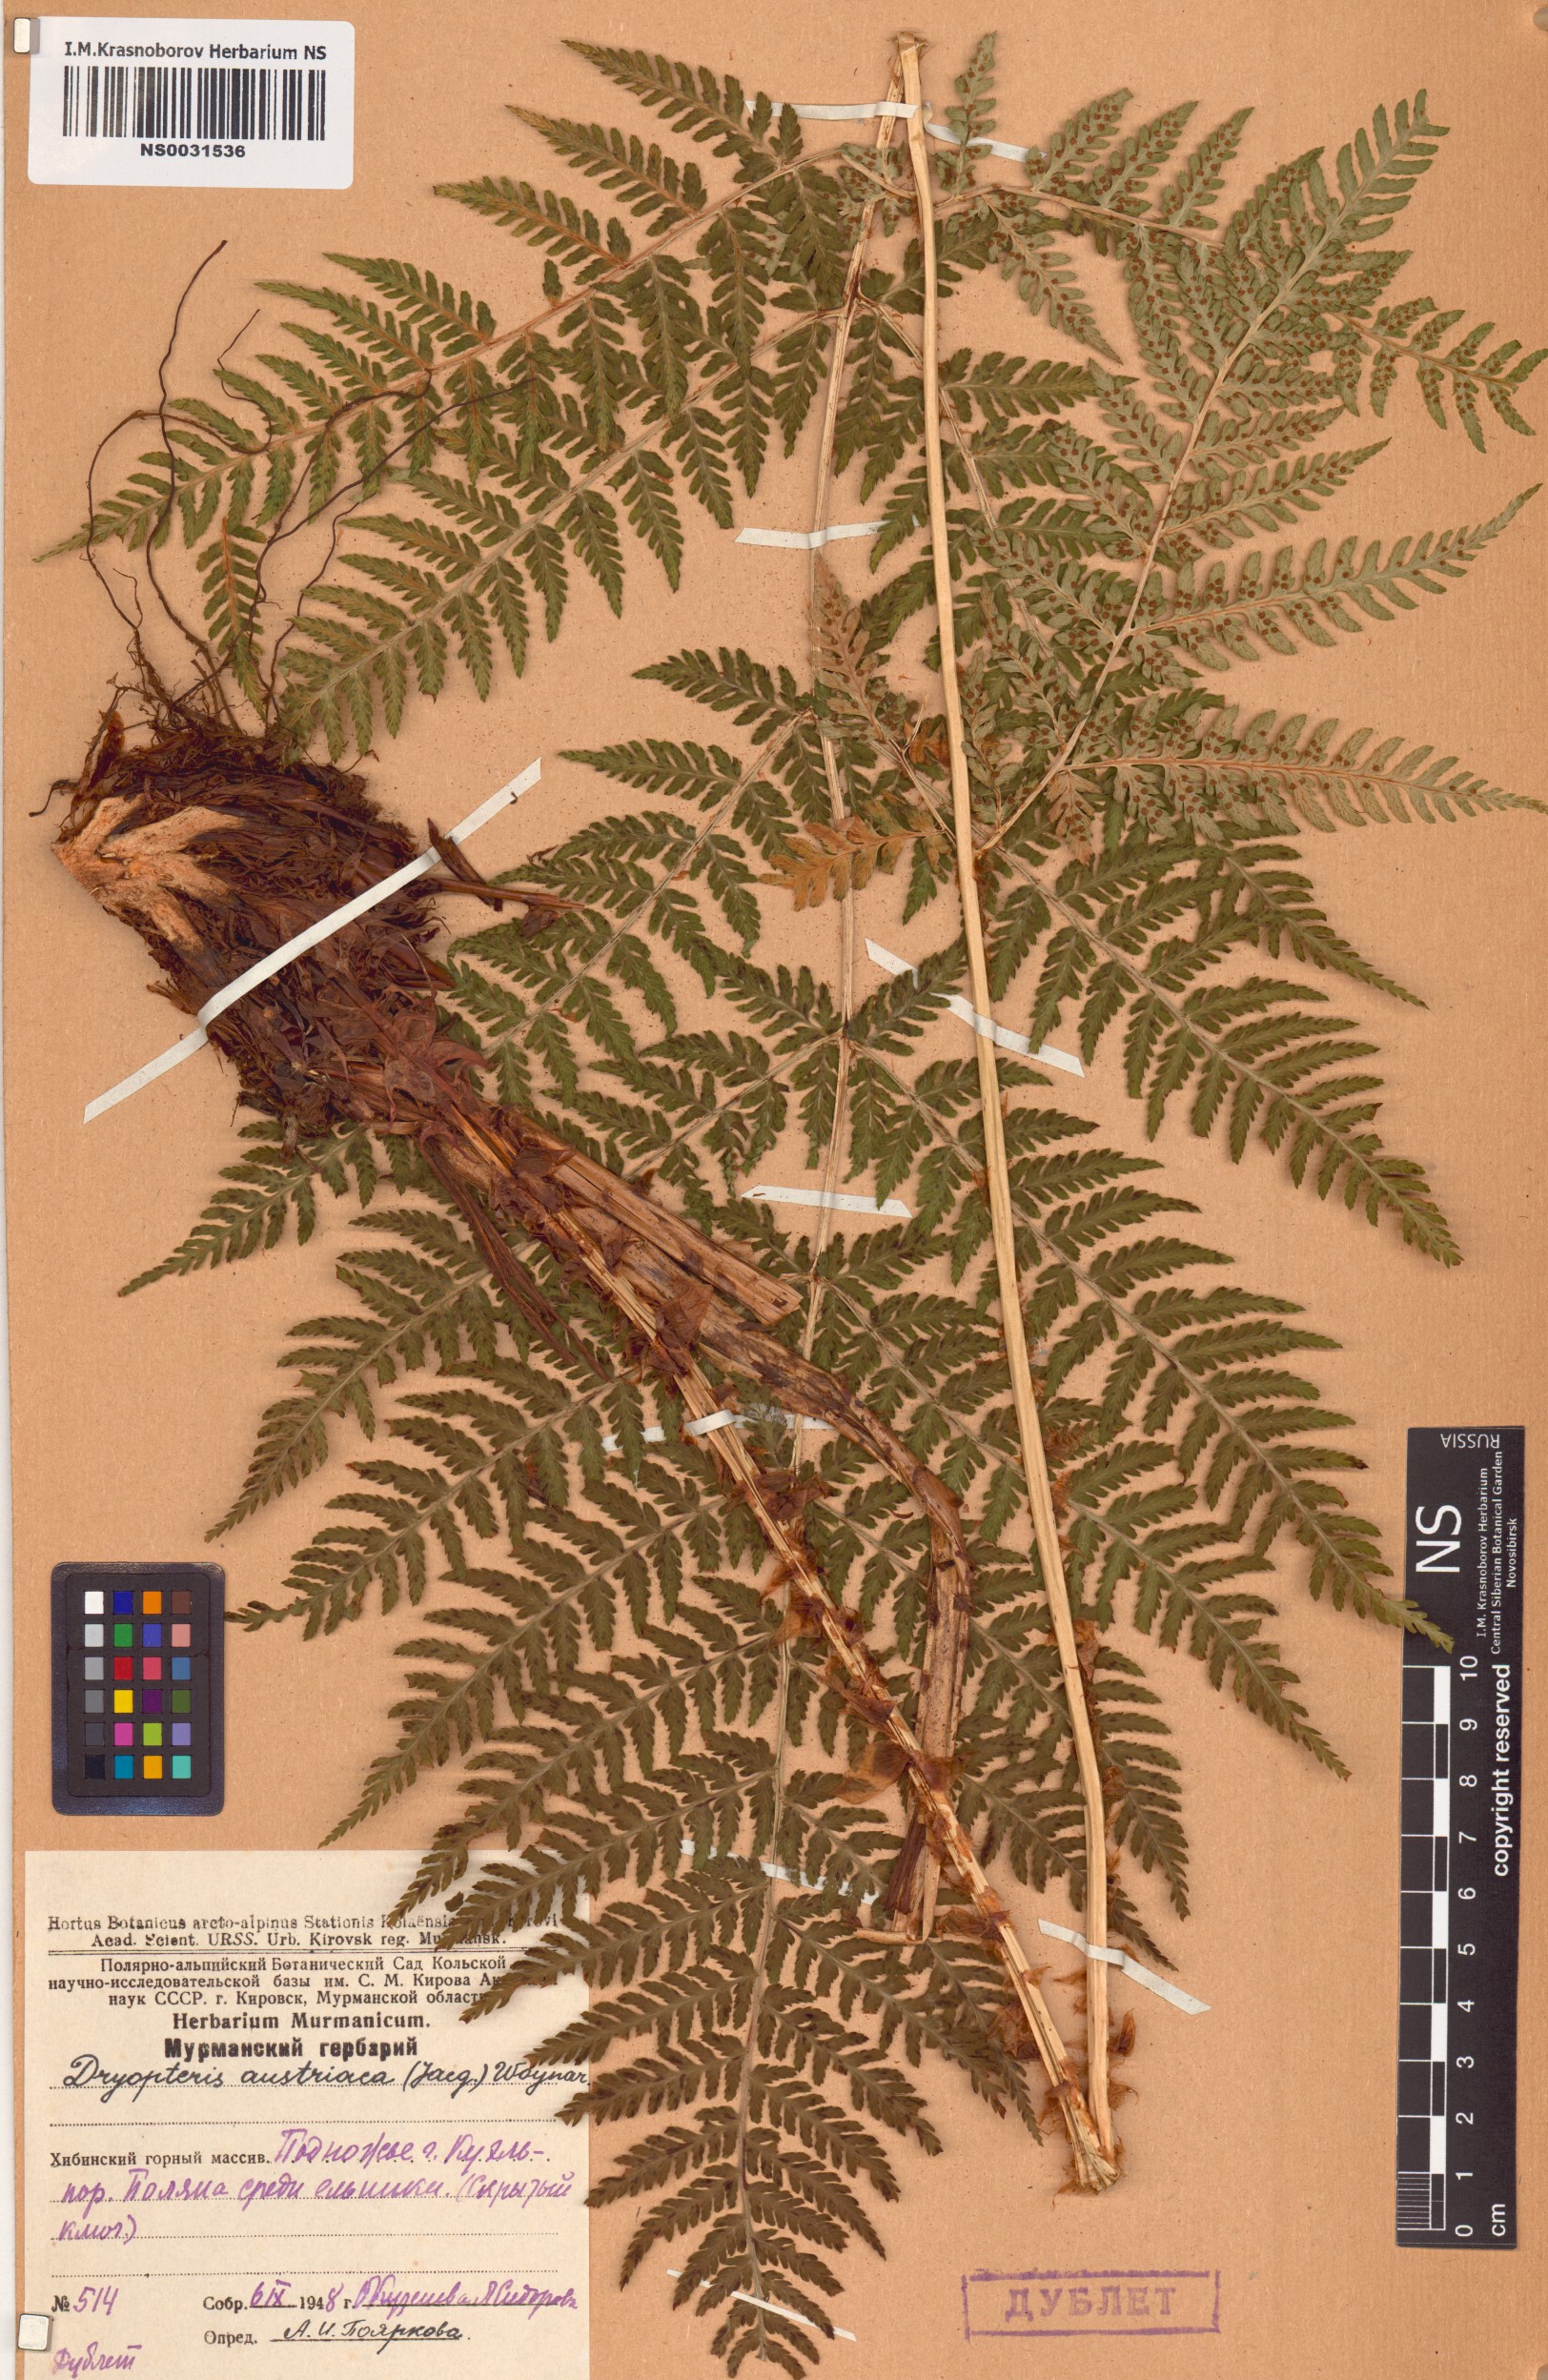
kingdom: Plantae
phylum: Tracheophyta
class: Polypodiopsida
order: Polypodiales
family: Dryopteridaceae
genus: Dryopteris
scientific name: Dryopteris dilatata
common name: Broad buckler-fern
